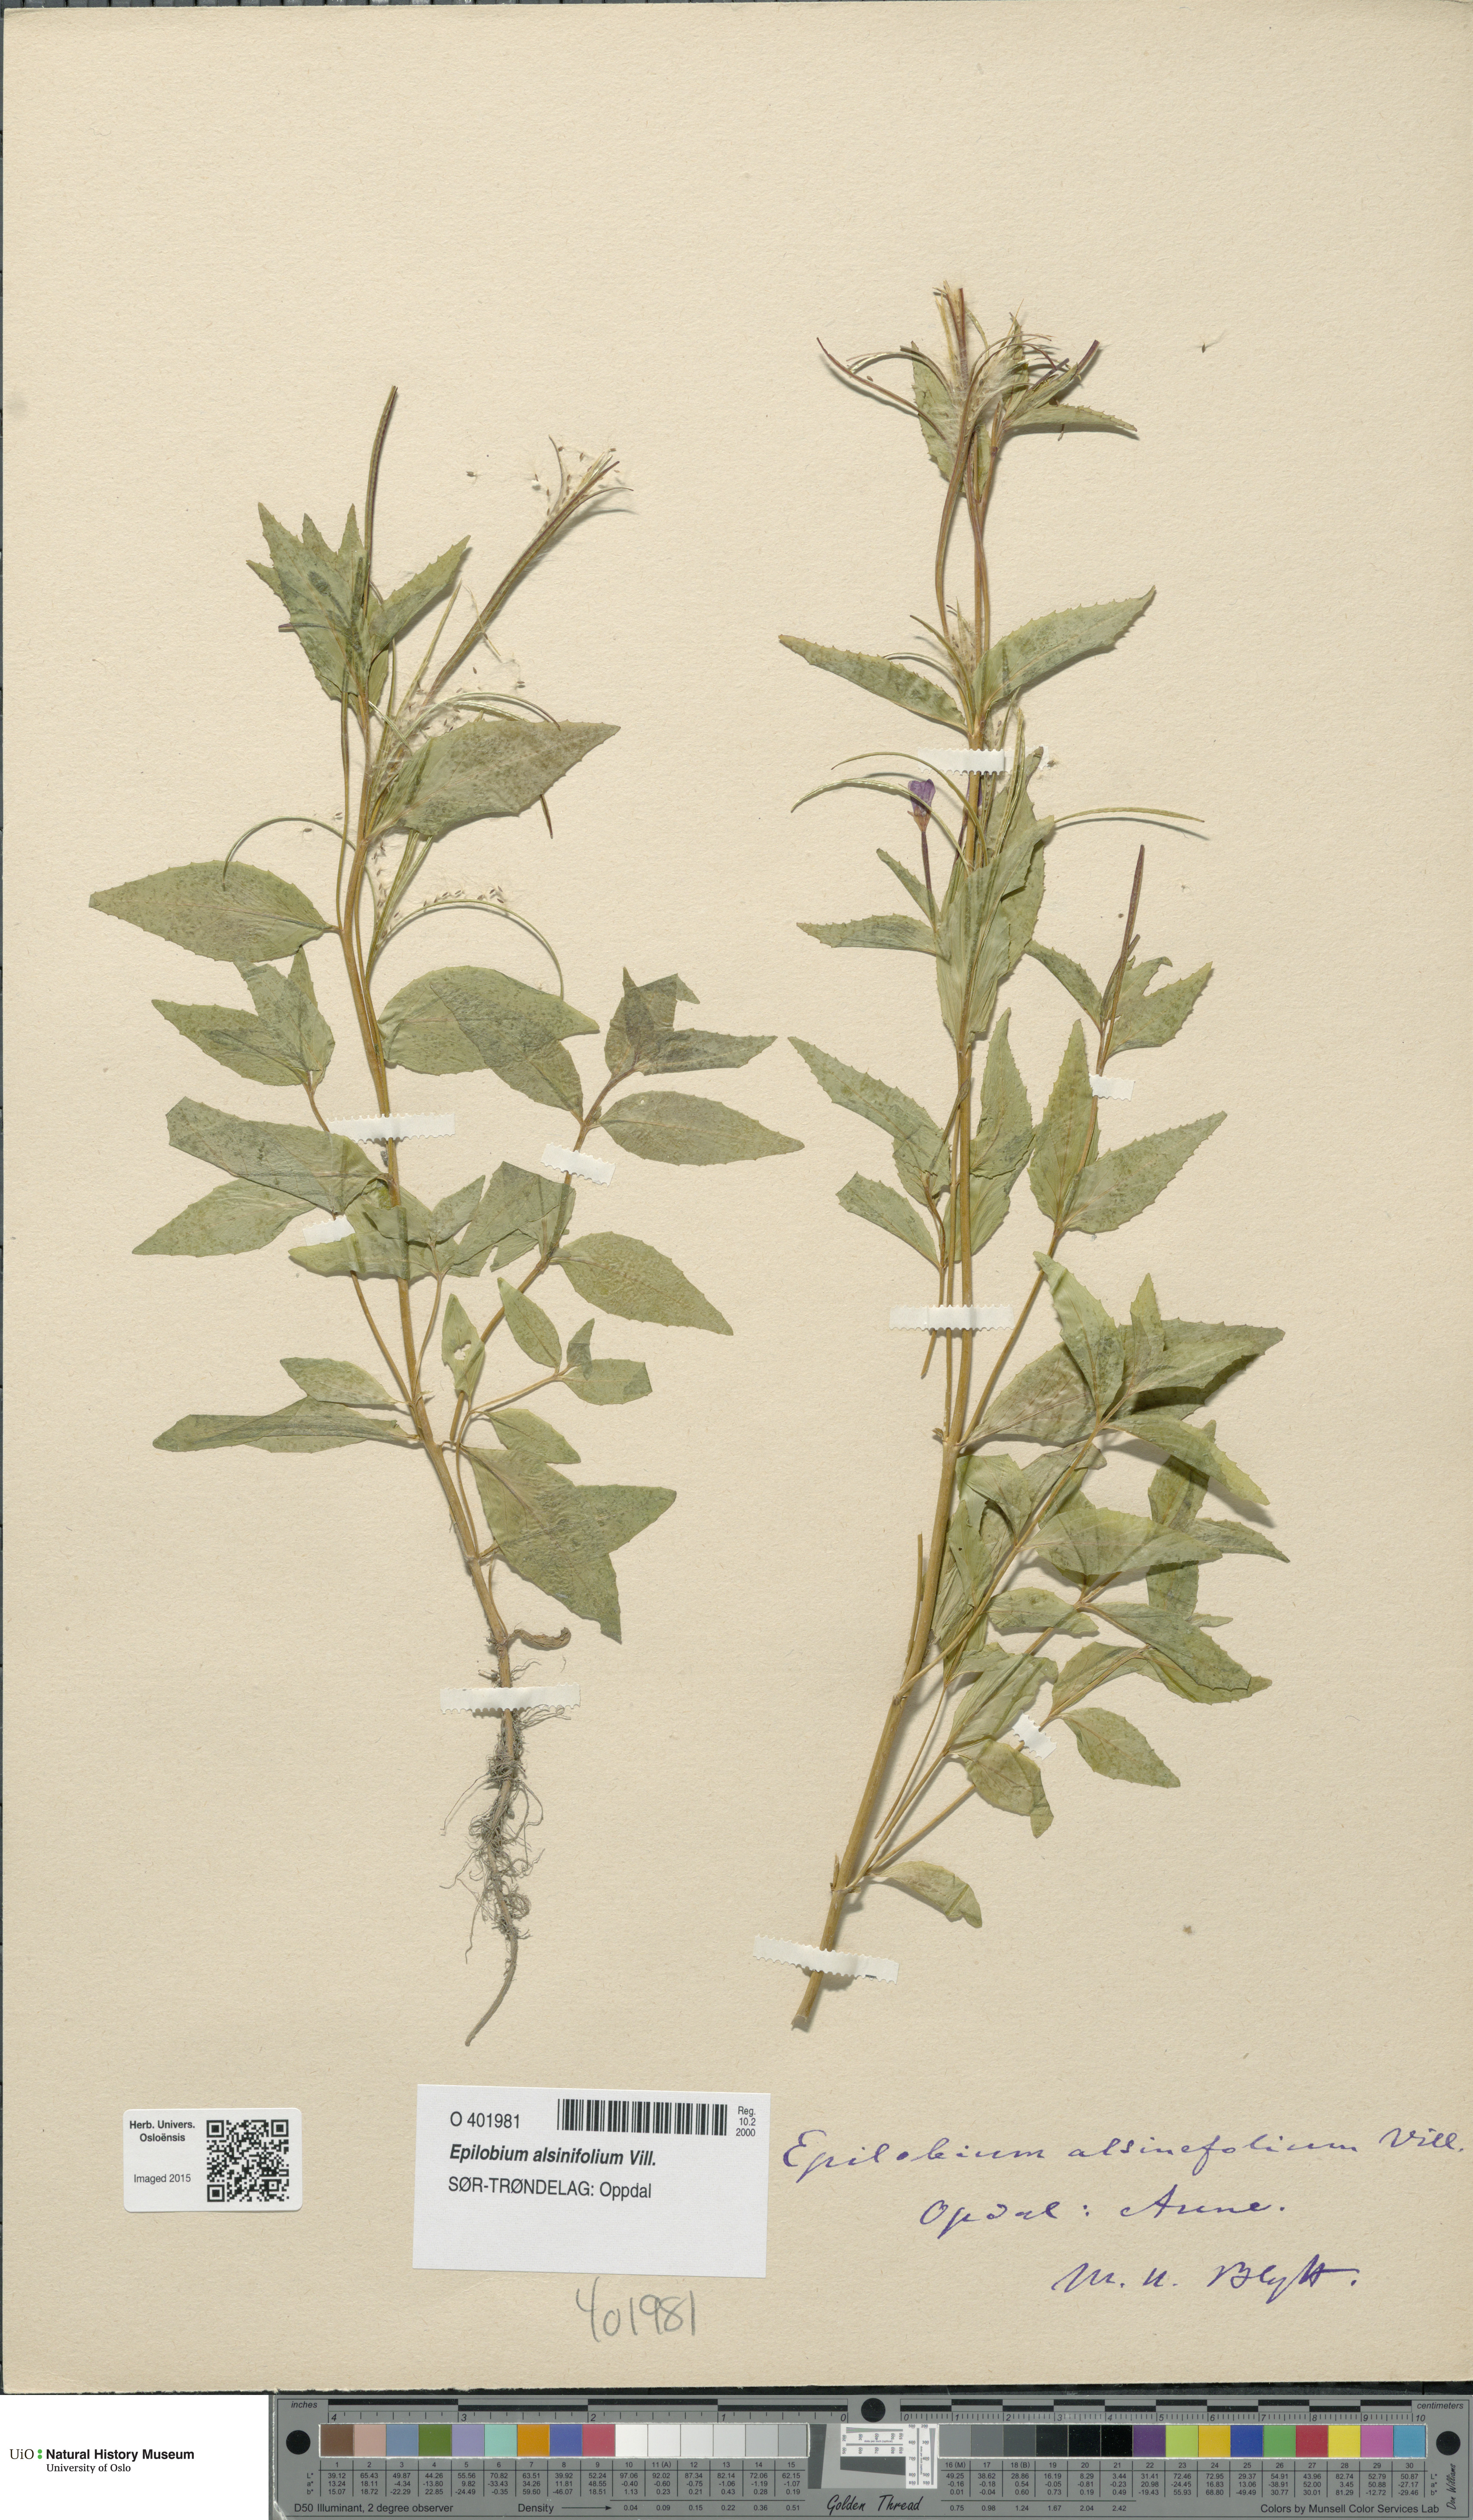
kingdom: Plantae
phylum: Tracheophyta
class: Magnoliopsida
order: Myrtales
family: Onagraceae
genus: Epilobium
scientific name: Epilobium alsinifolium
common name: Chickweed willowherb
